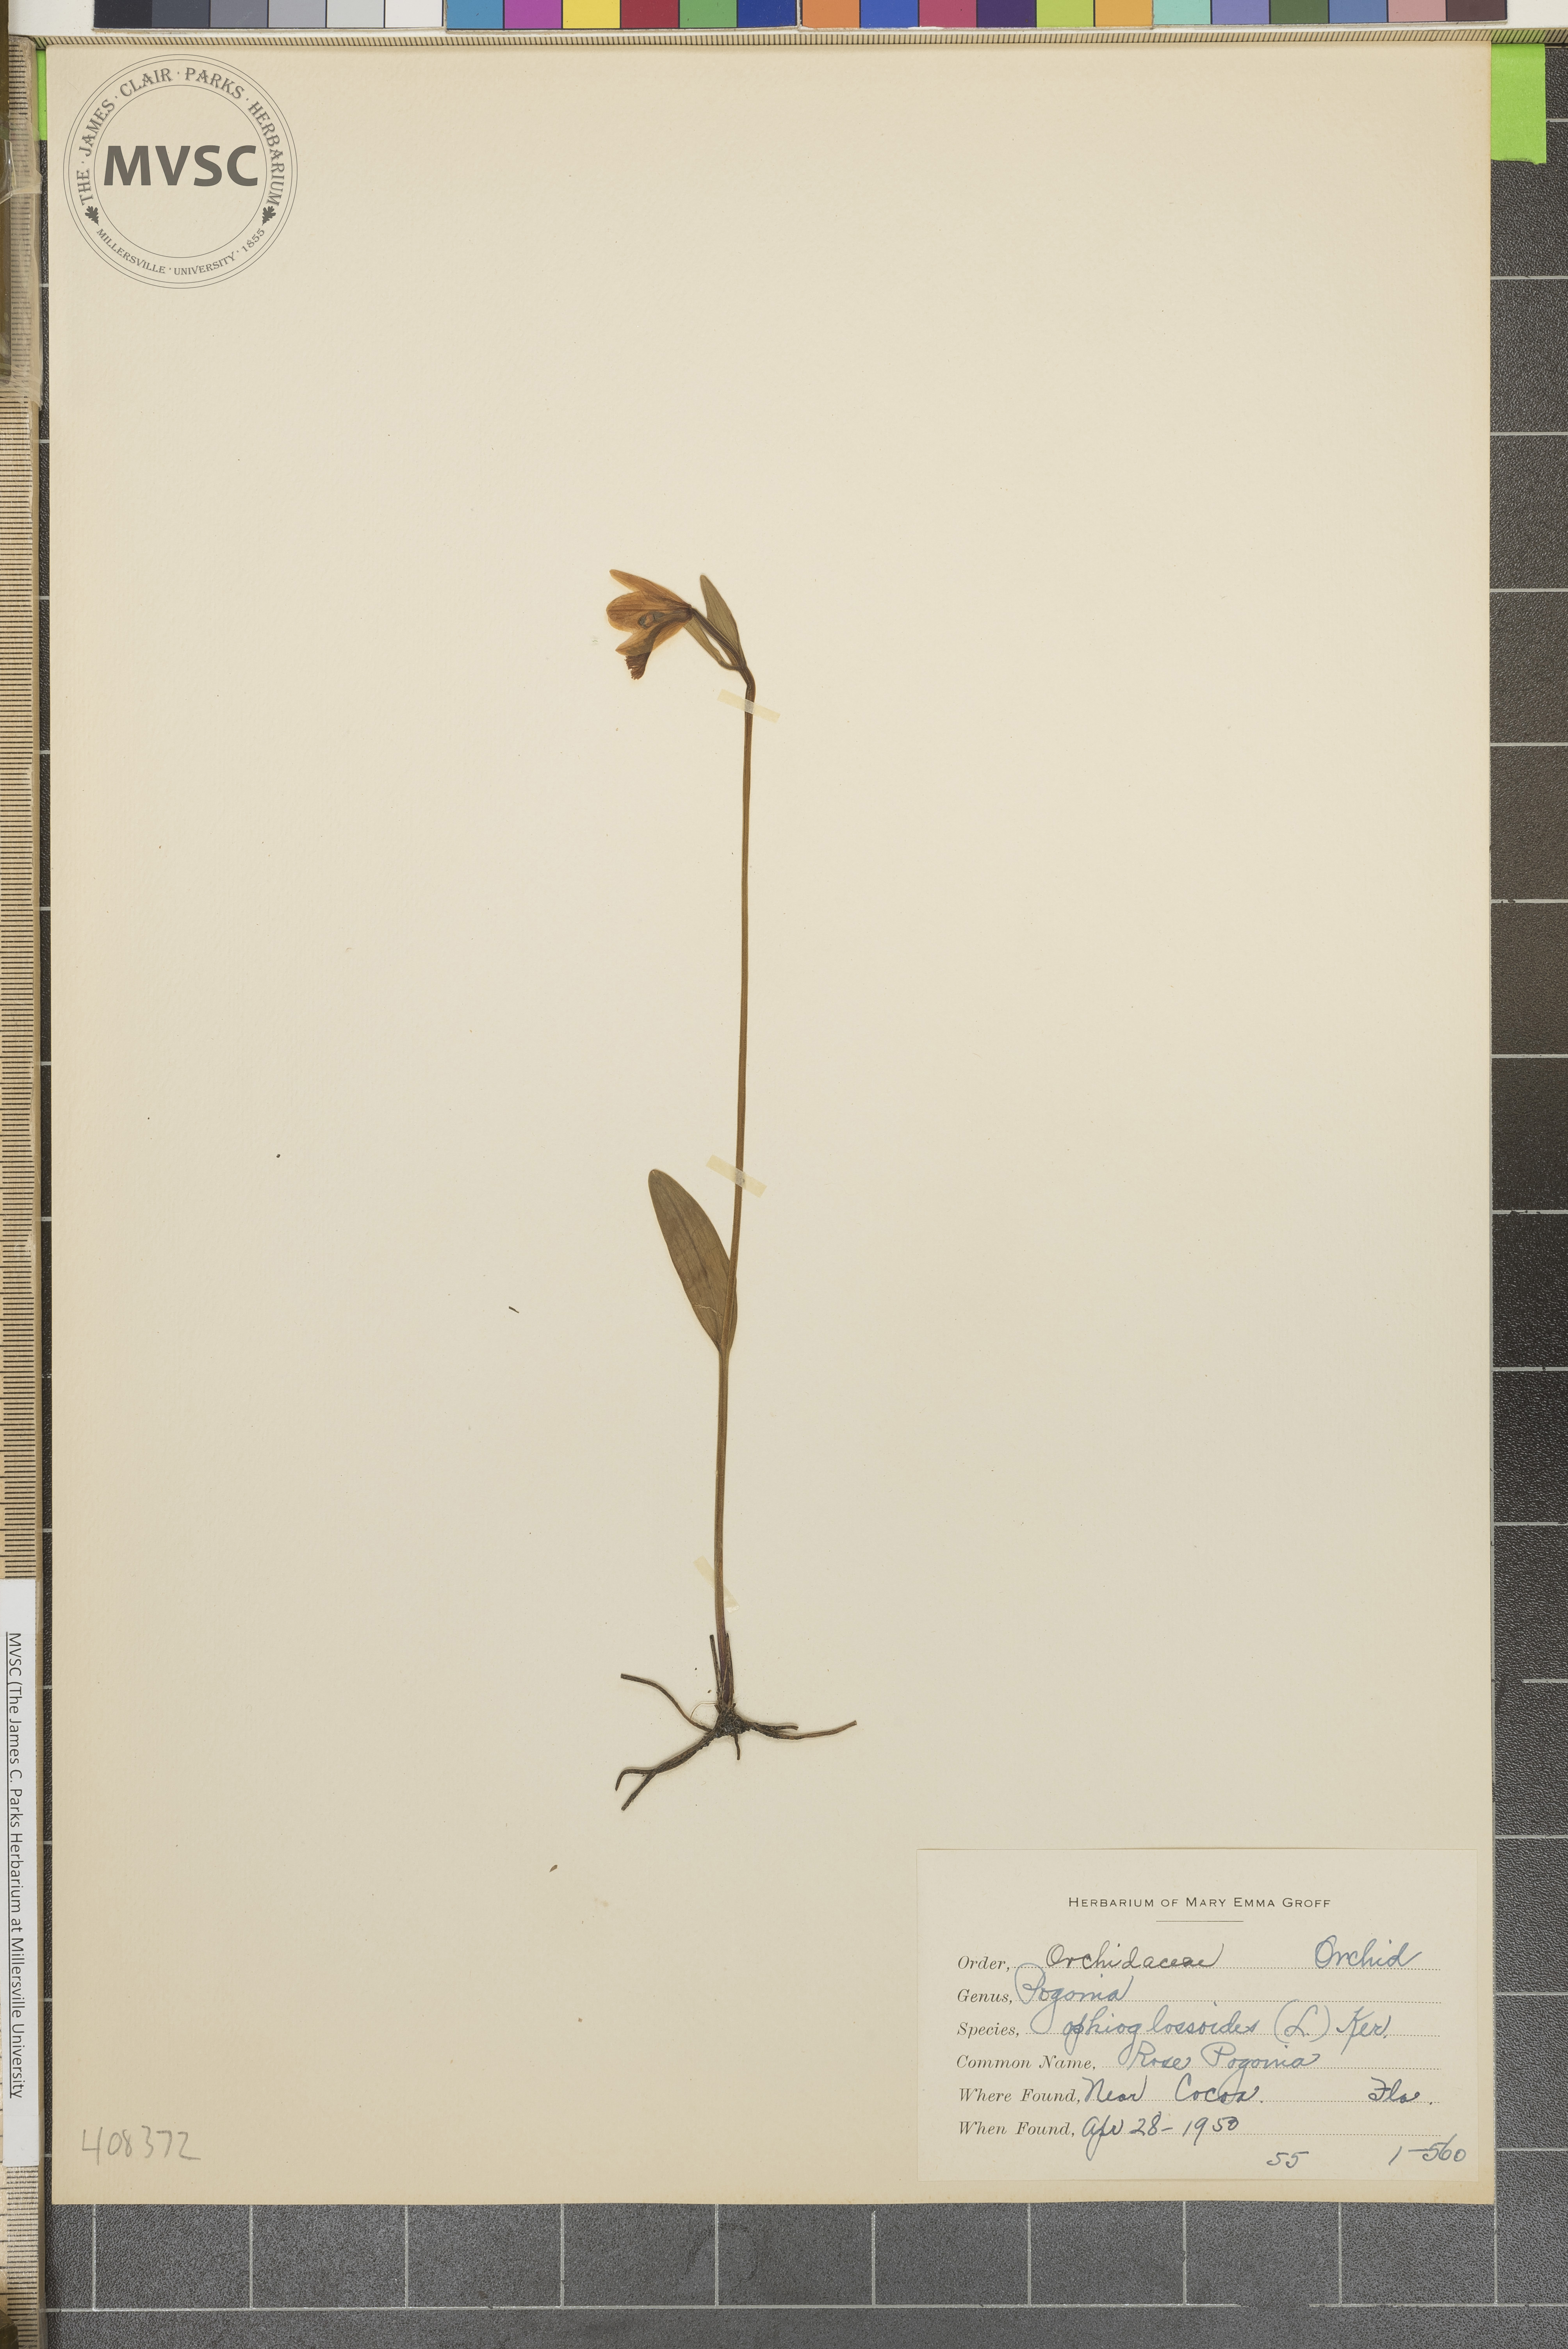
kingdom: Plantae
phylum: Tracheophyta
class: Liliopsida
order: Asparagales
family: Orchidaceae
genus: Pogonia
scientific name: Pogonia ophioglossoides
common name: Rose Pogonia
